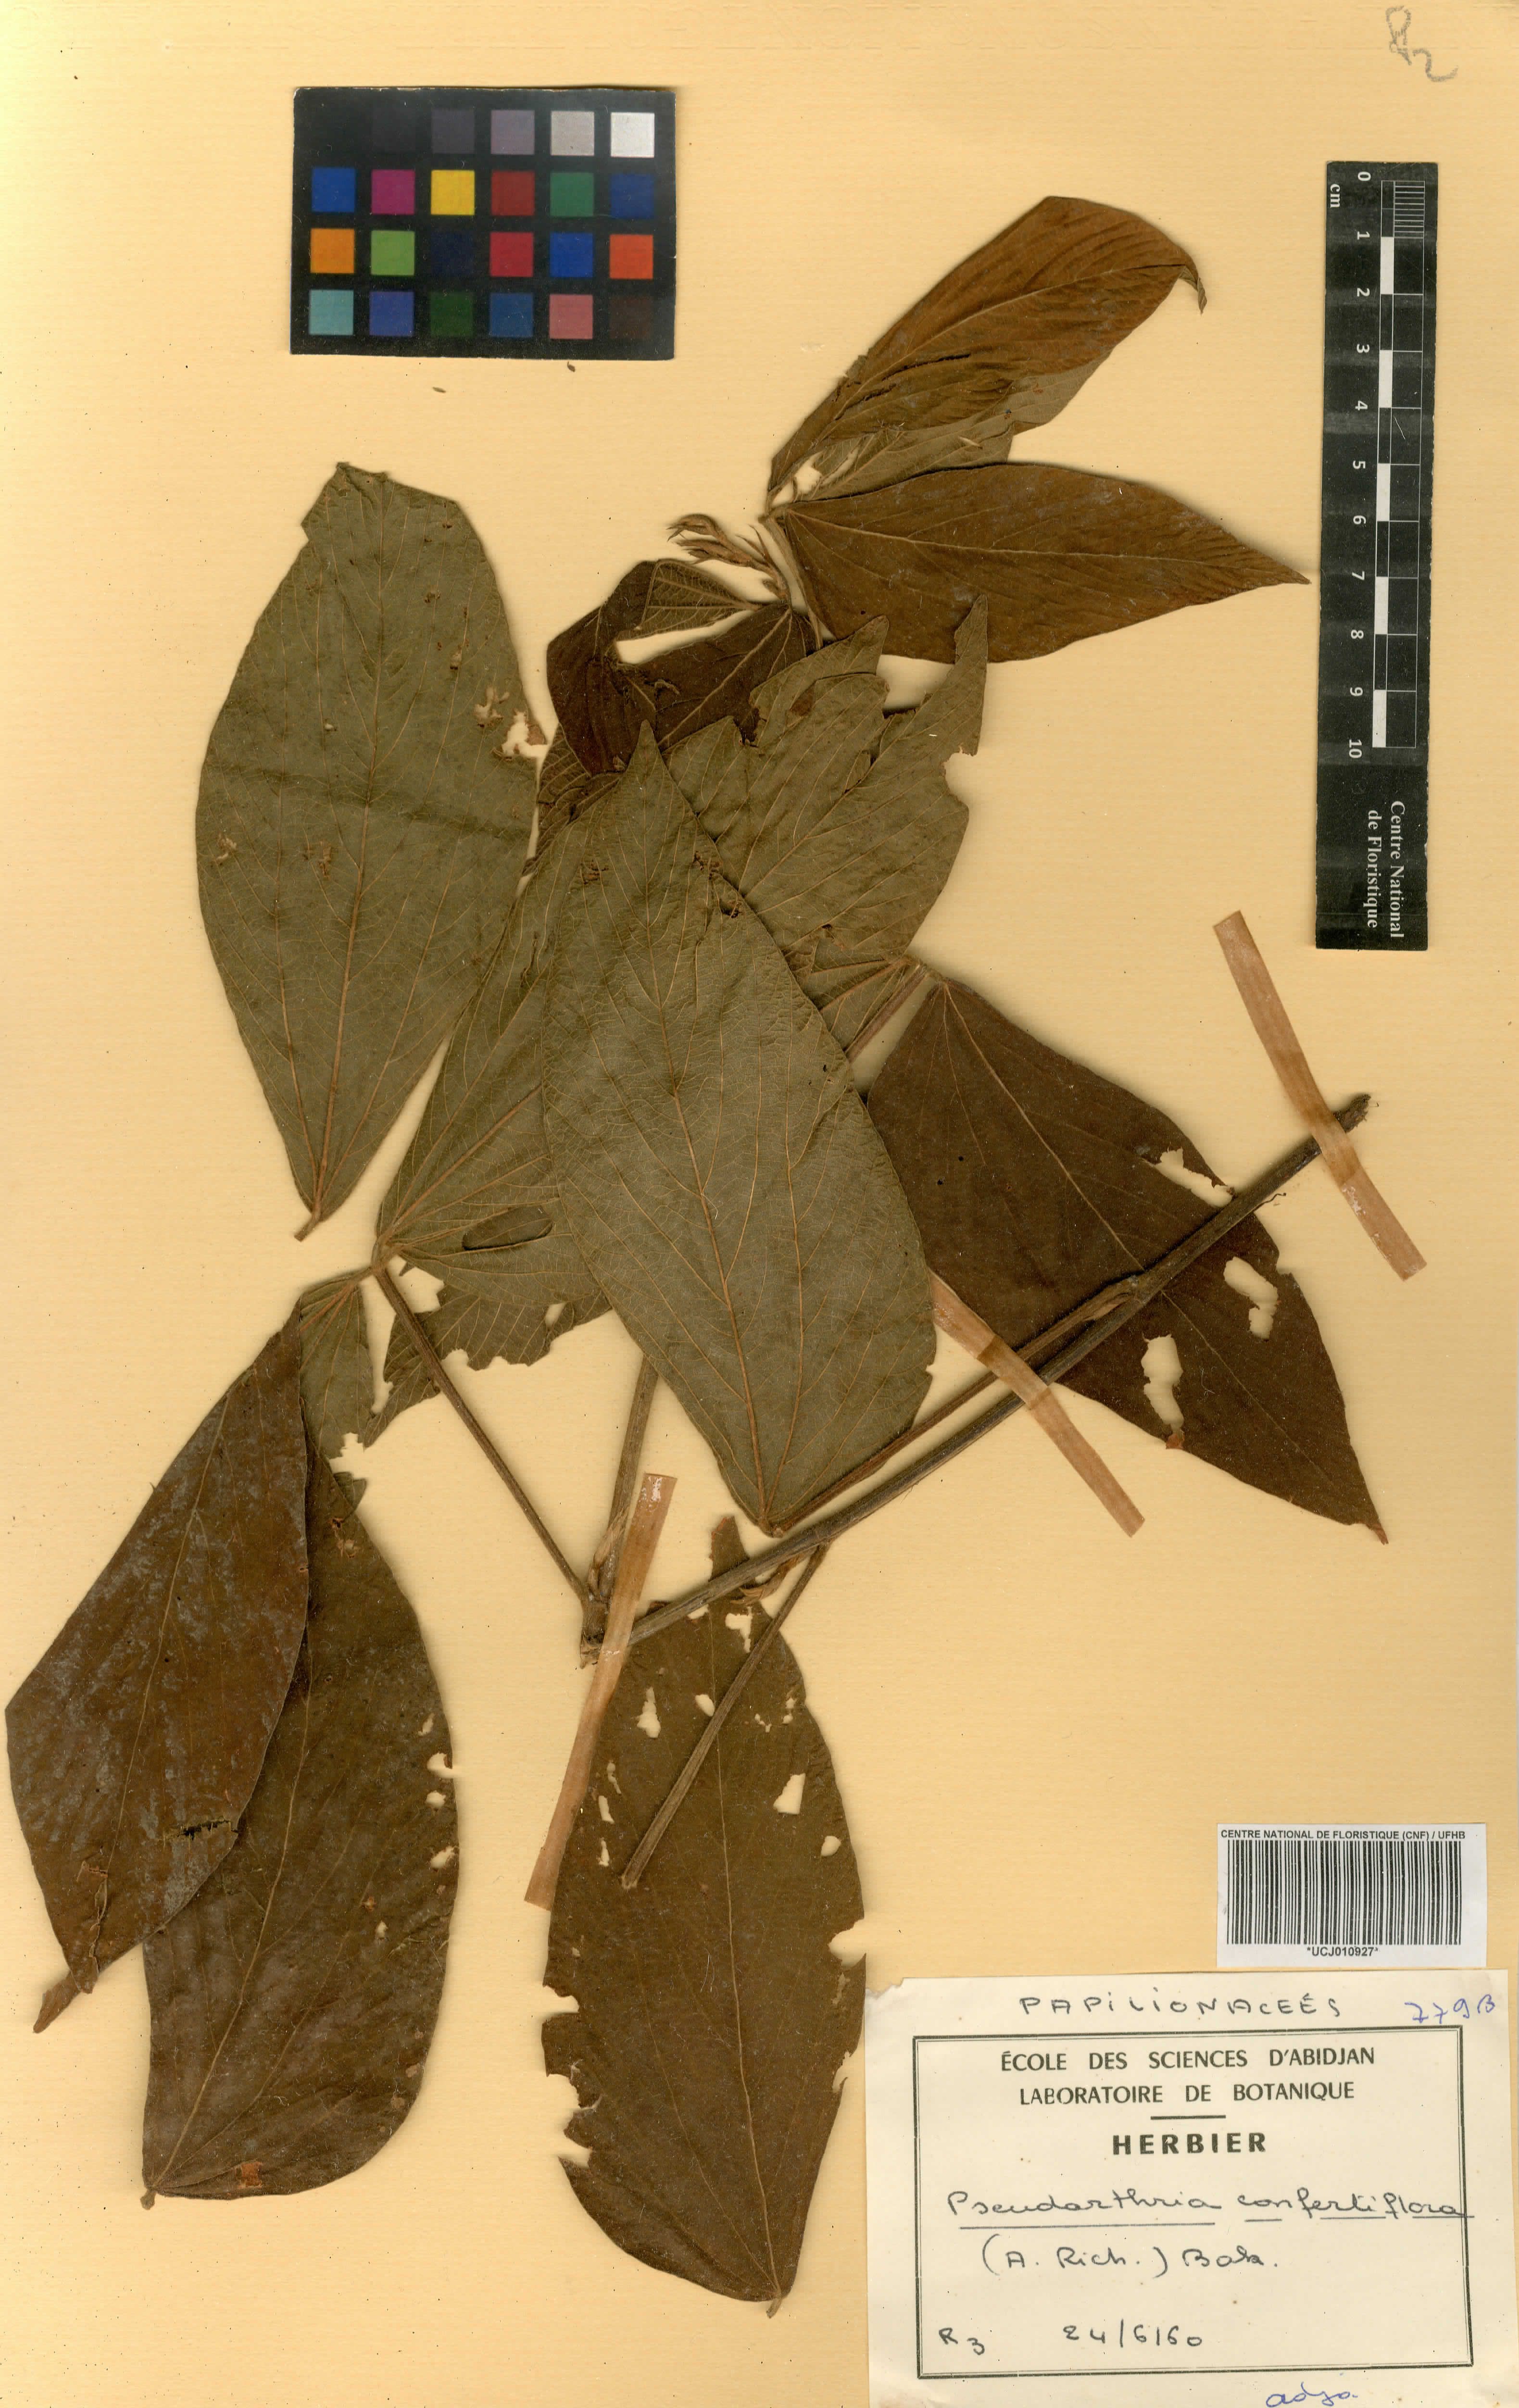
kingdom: Plantae
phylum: Tracheophyta
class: Magnoliopsida
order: Fabales
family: Fabaceae
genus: Pseudarthria
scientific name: Pseudarthria confertiflora
